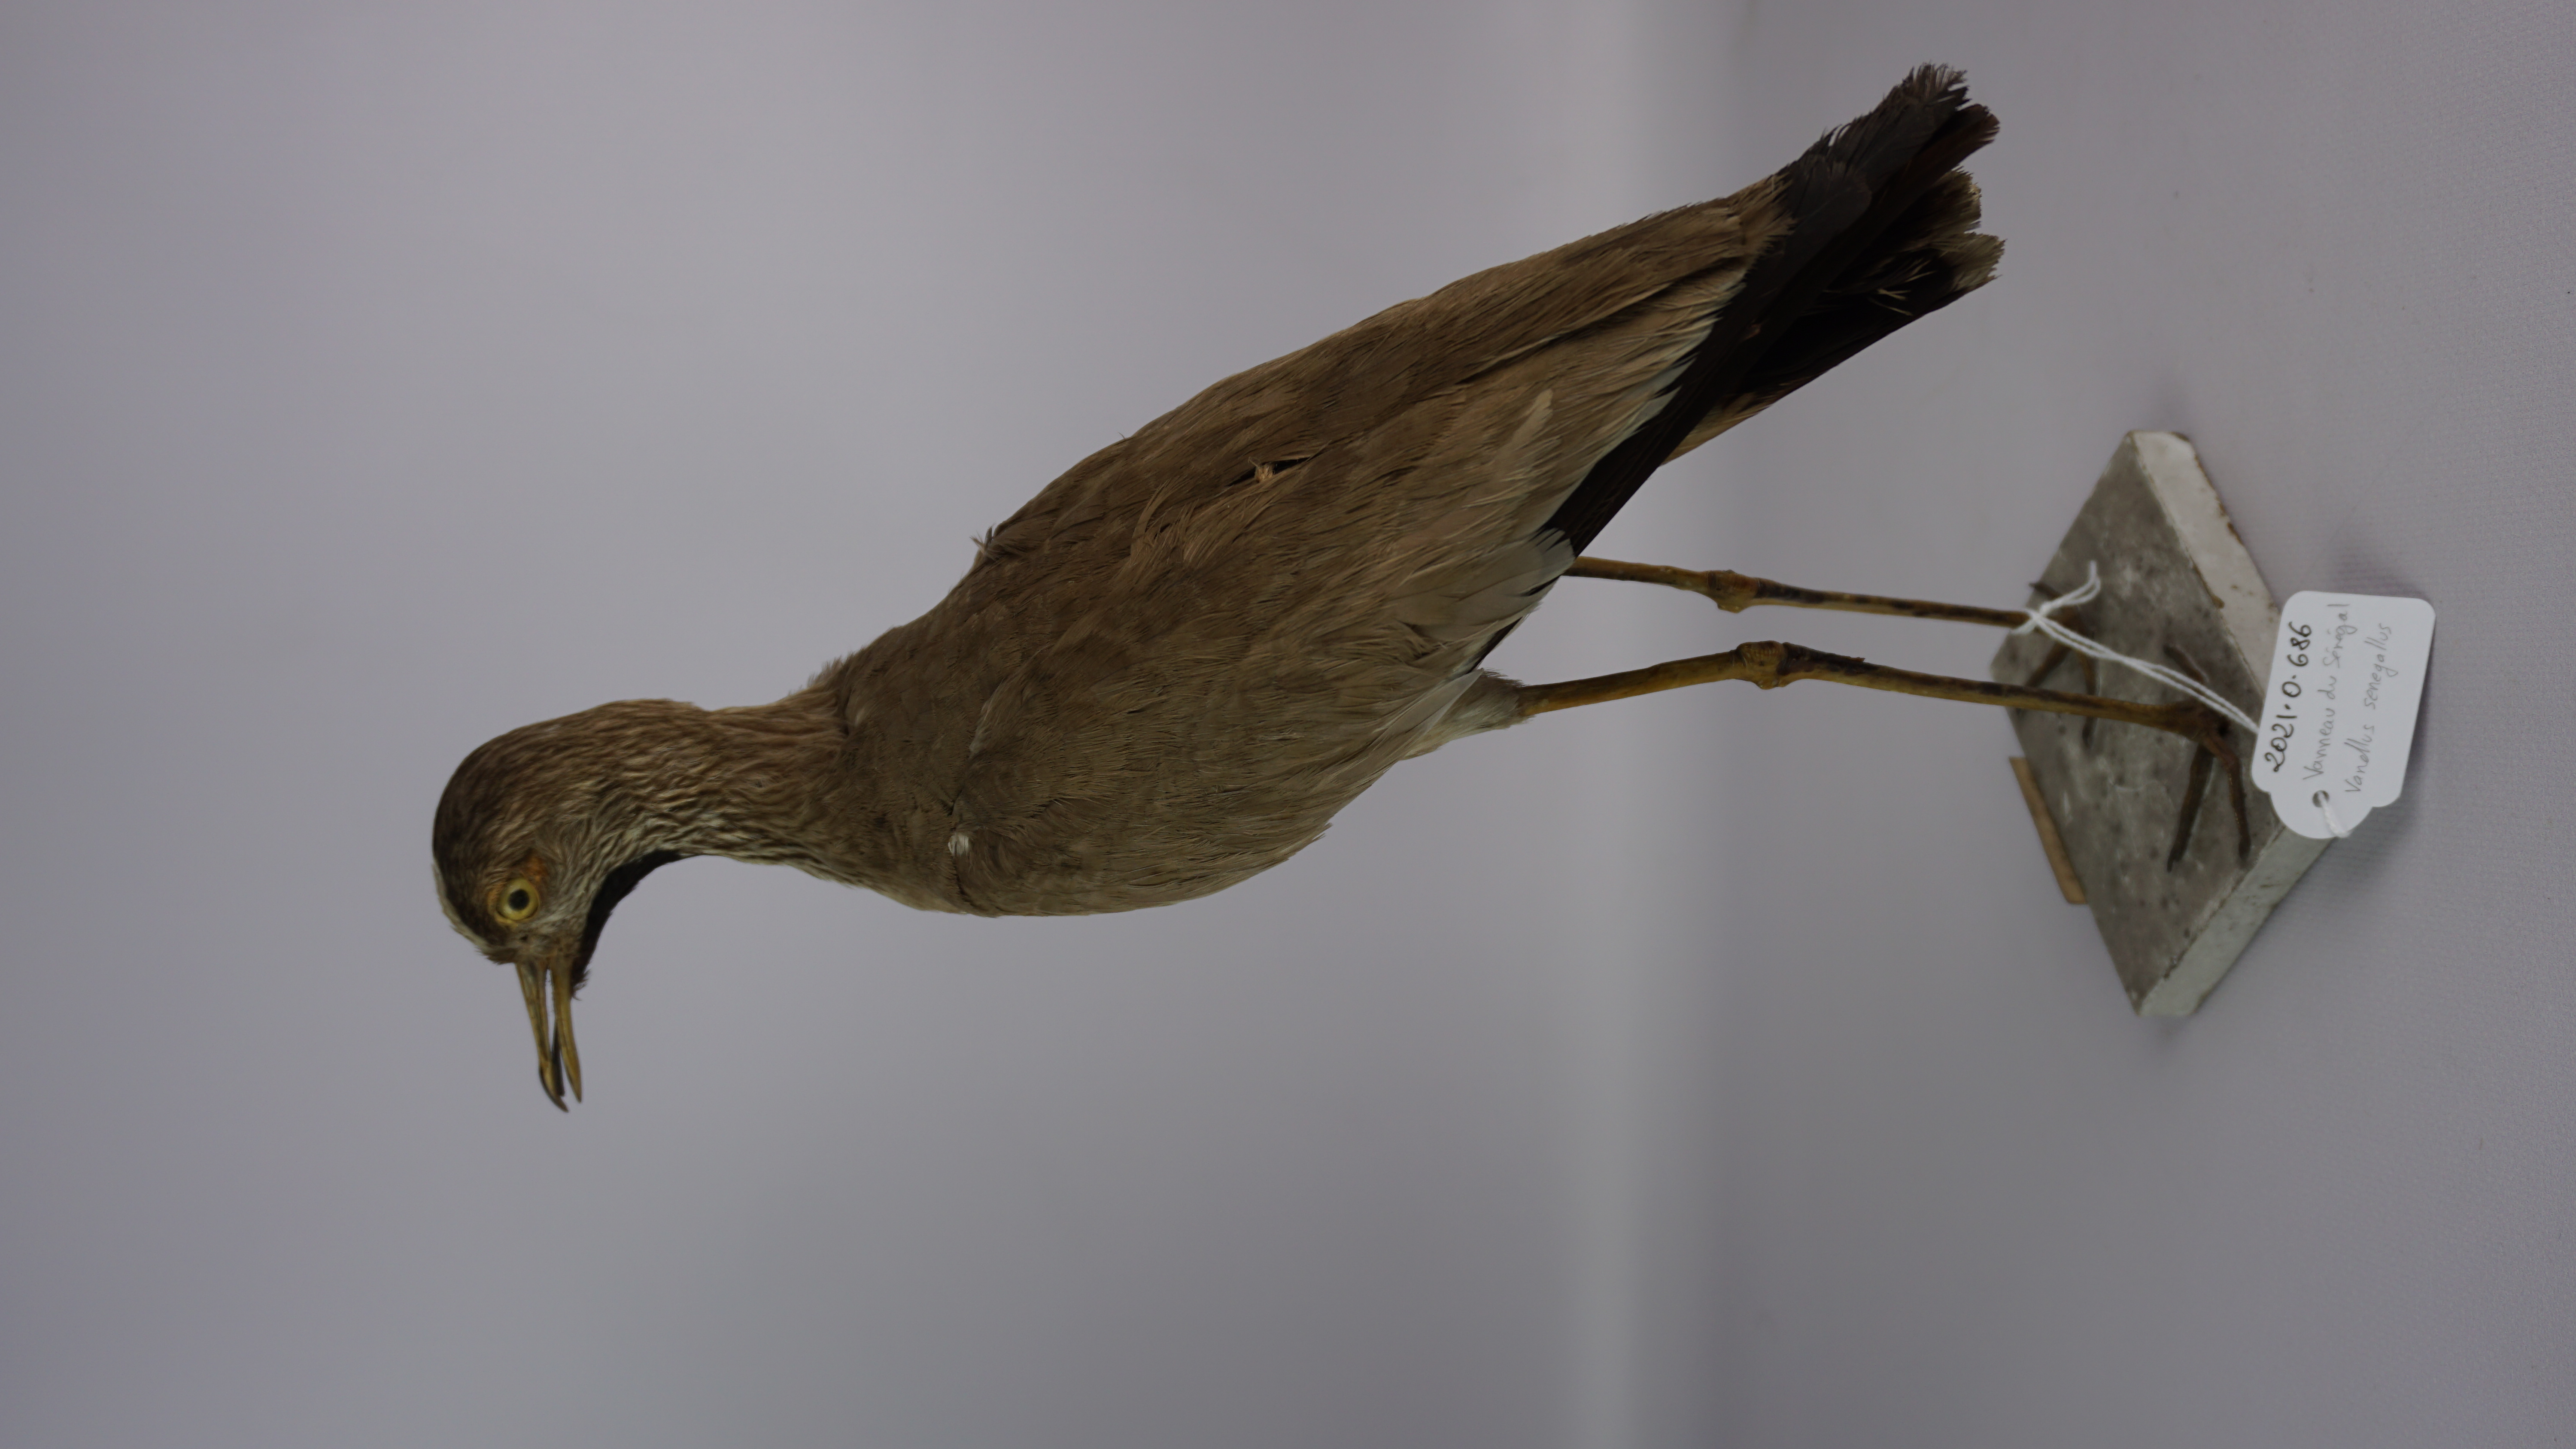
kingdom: Animalia
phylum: Chordata
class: Aves
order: Charadriiformes
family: Charadriidae
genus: Vanellus
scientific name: Vanellus senegallus
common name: African wattled lapwing
